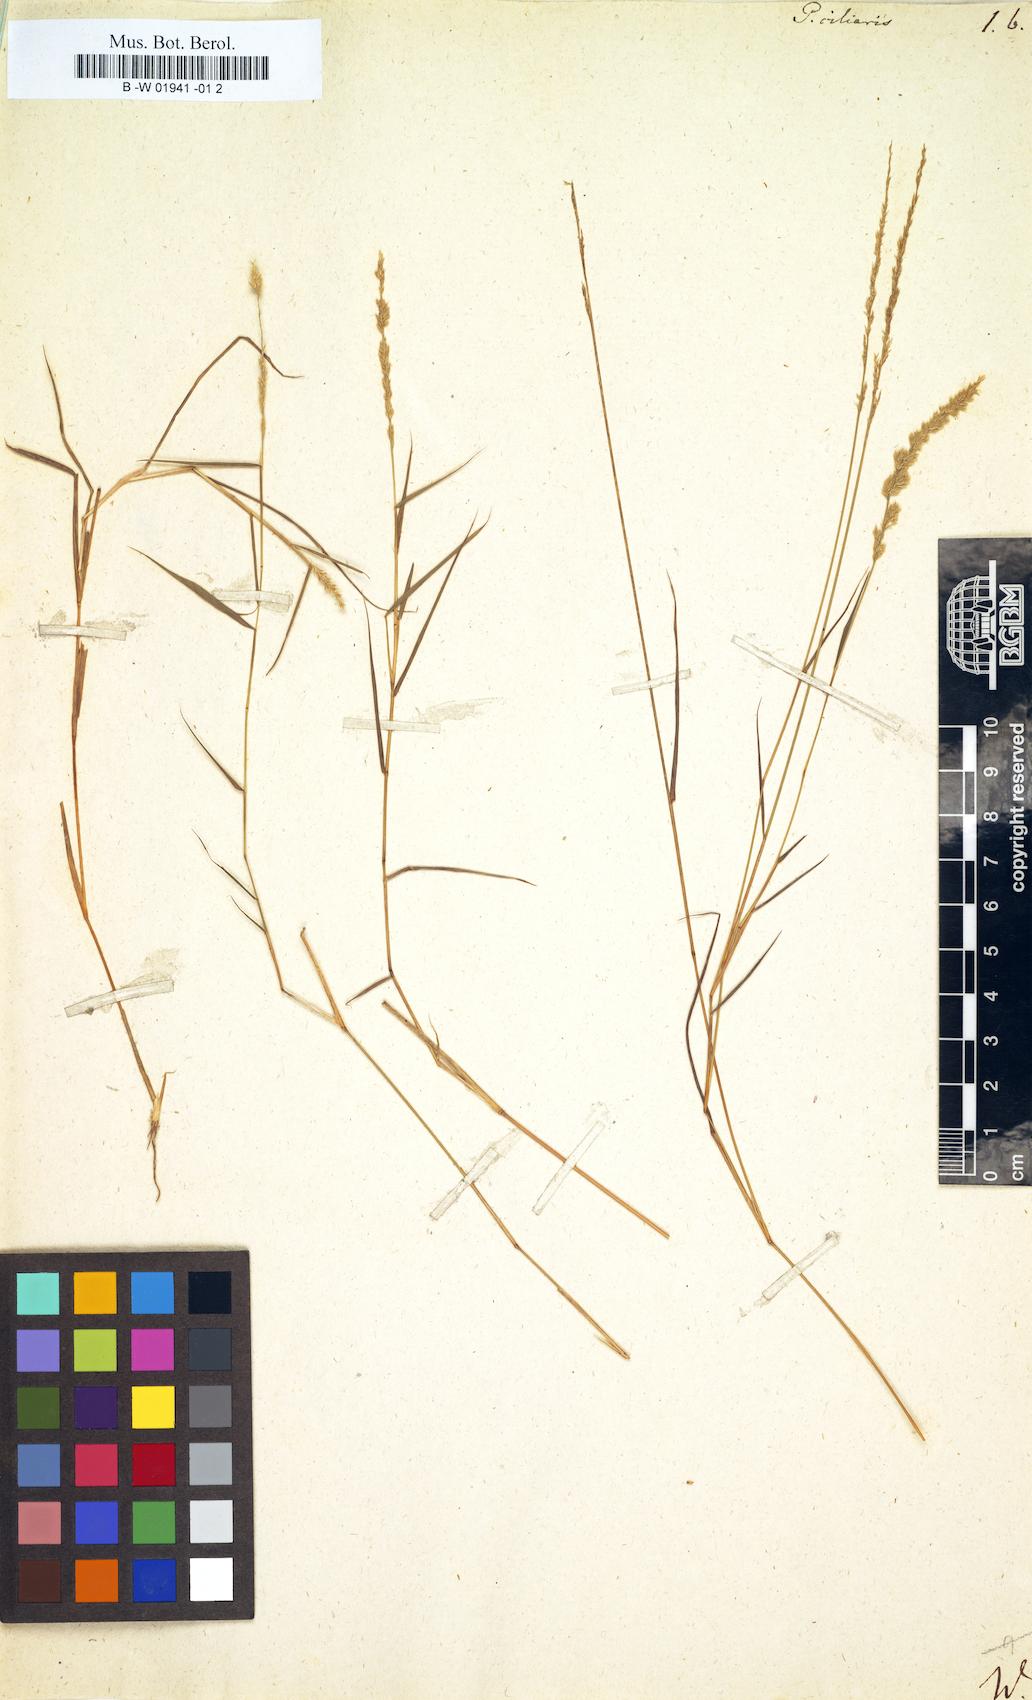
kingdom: Plantae
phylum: Tracheophyta
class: Liliopsida
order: Poales
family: Poaceae
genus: Poa
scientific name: Poa ciliaris
